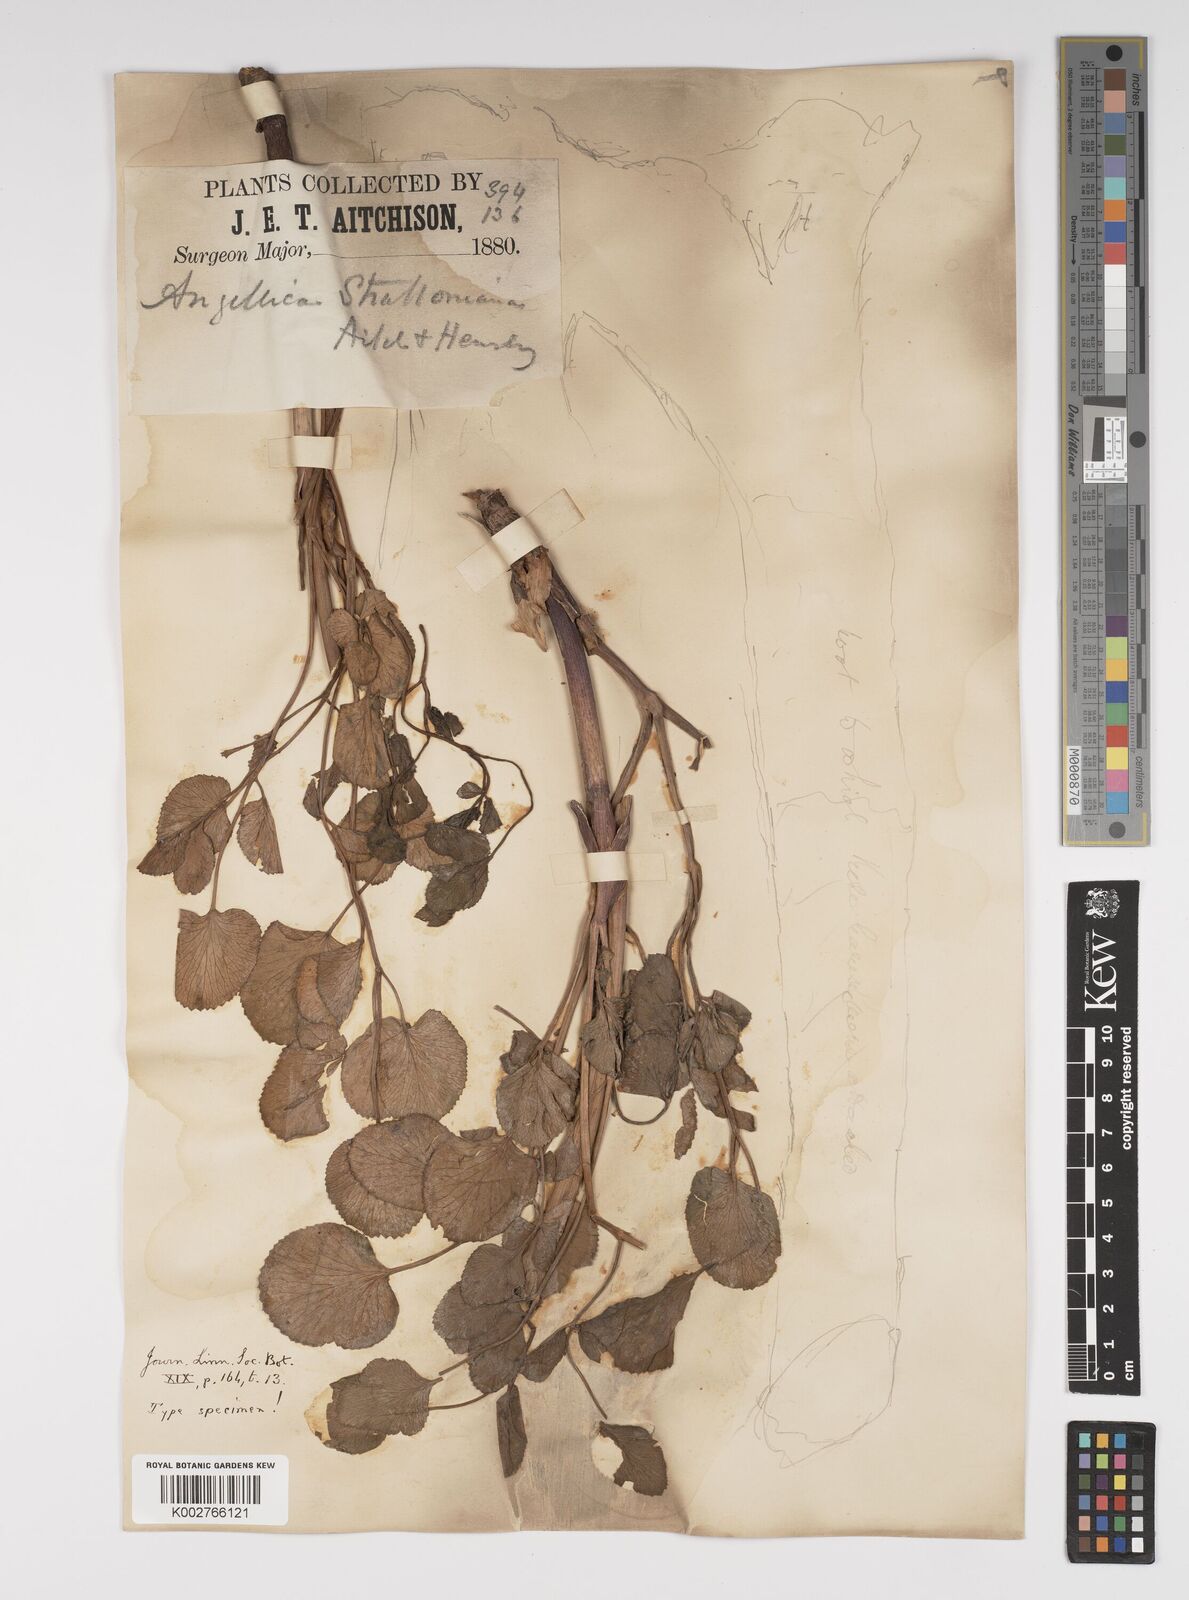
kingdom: Plantae
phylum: Tracheophyta
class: Magnoliopsida
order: Apiales
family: Apiaceae
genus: Angelica
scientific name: Angelica ternata
